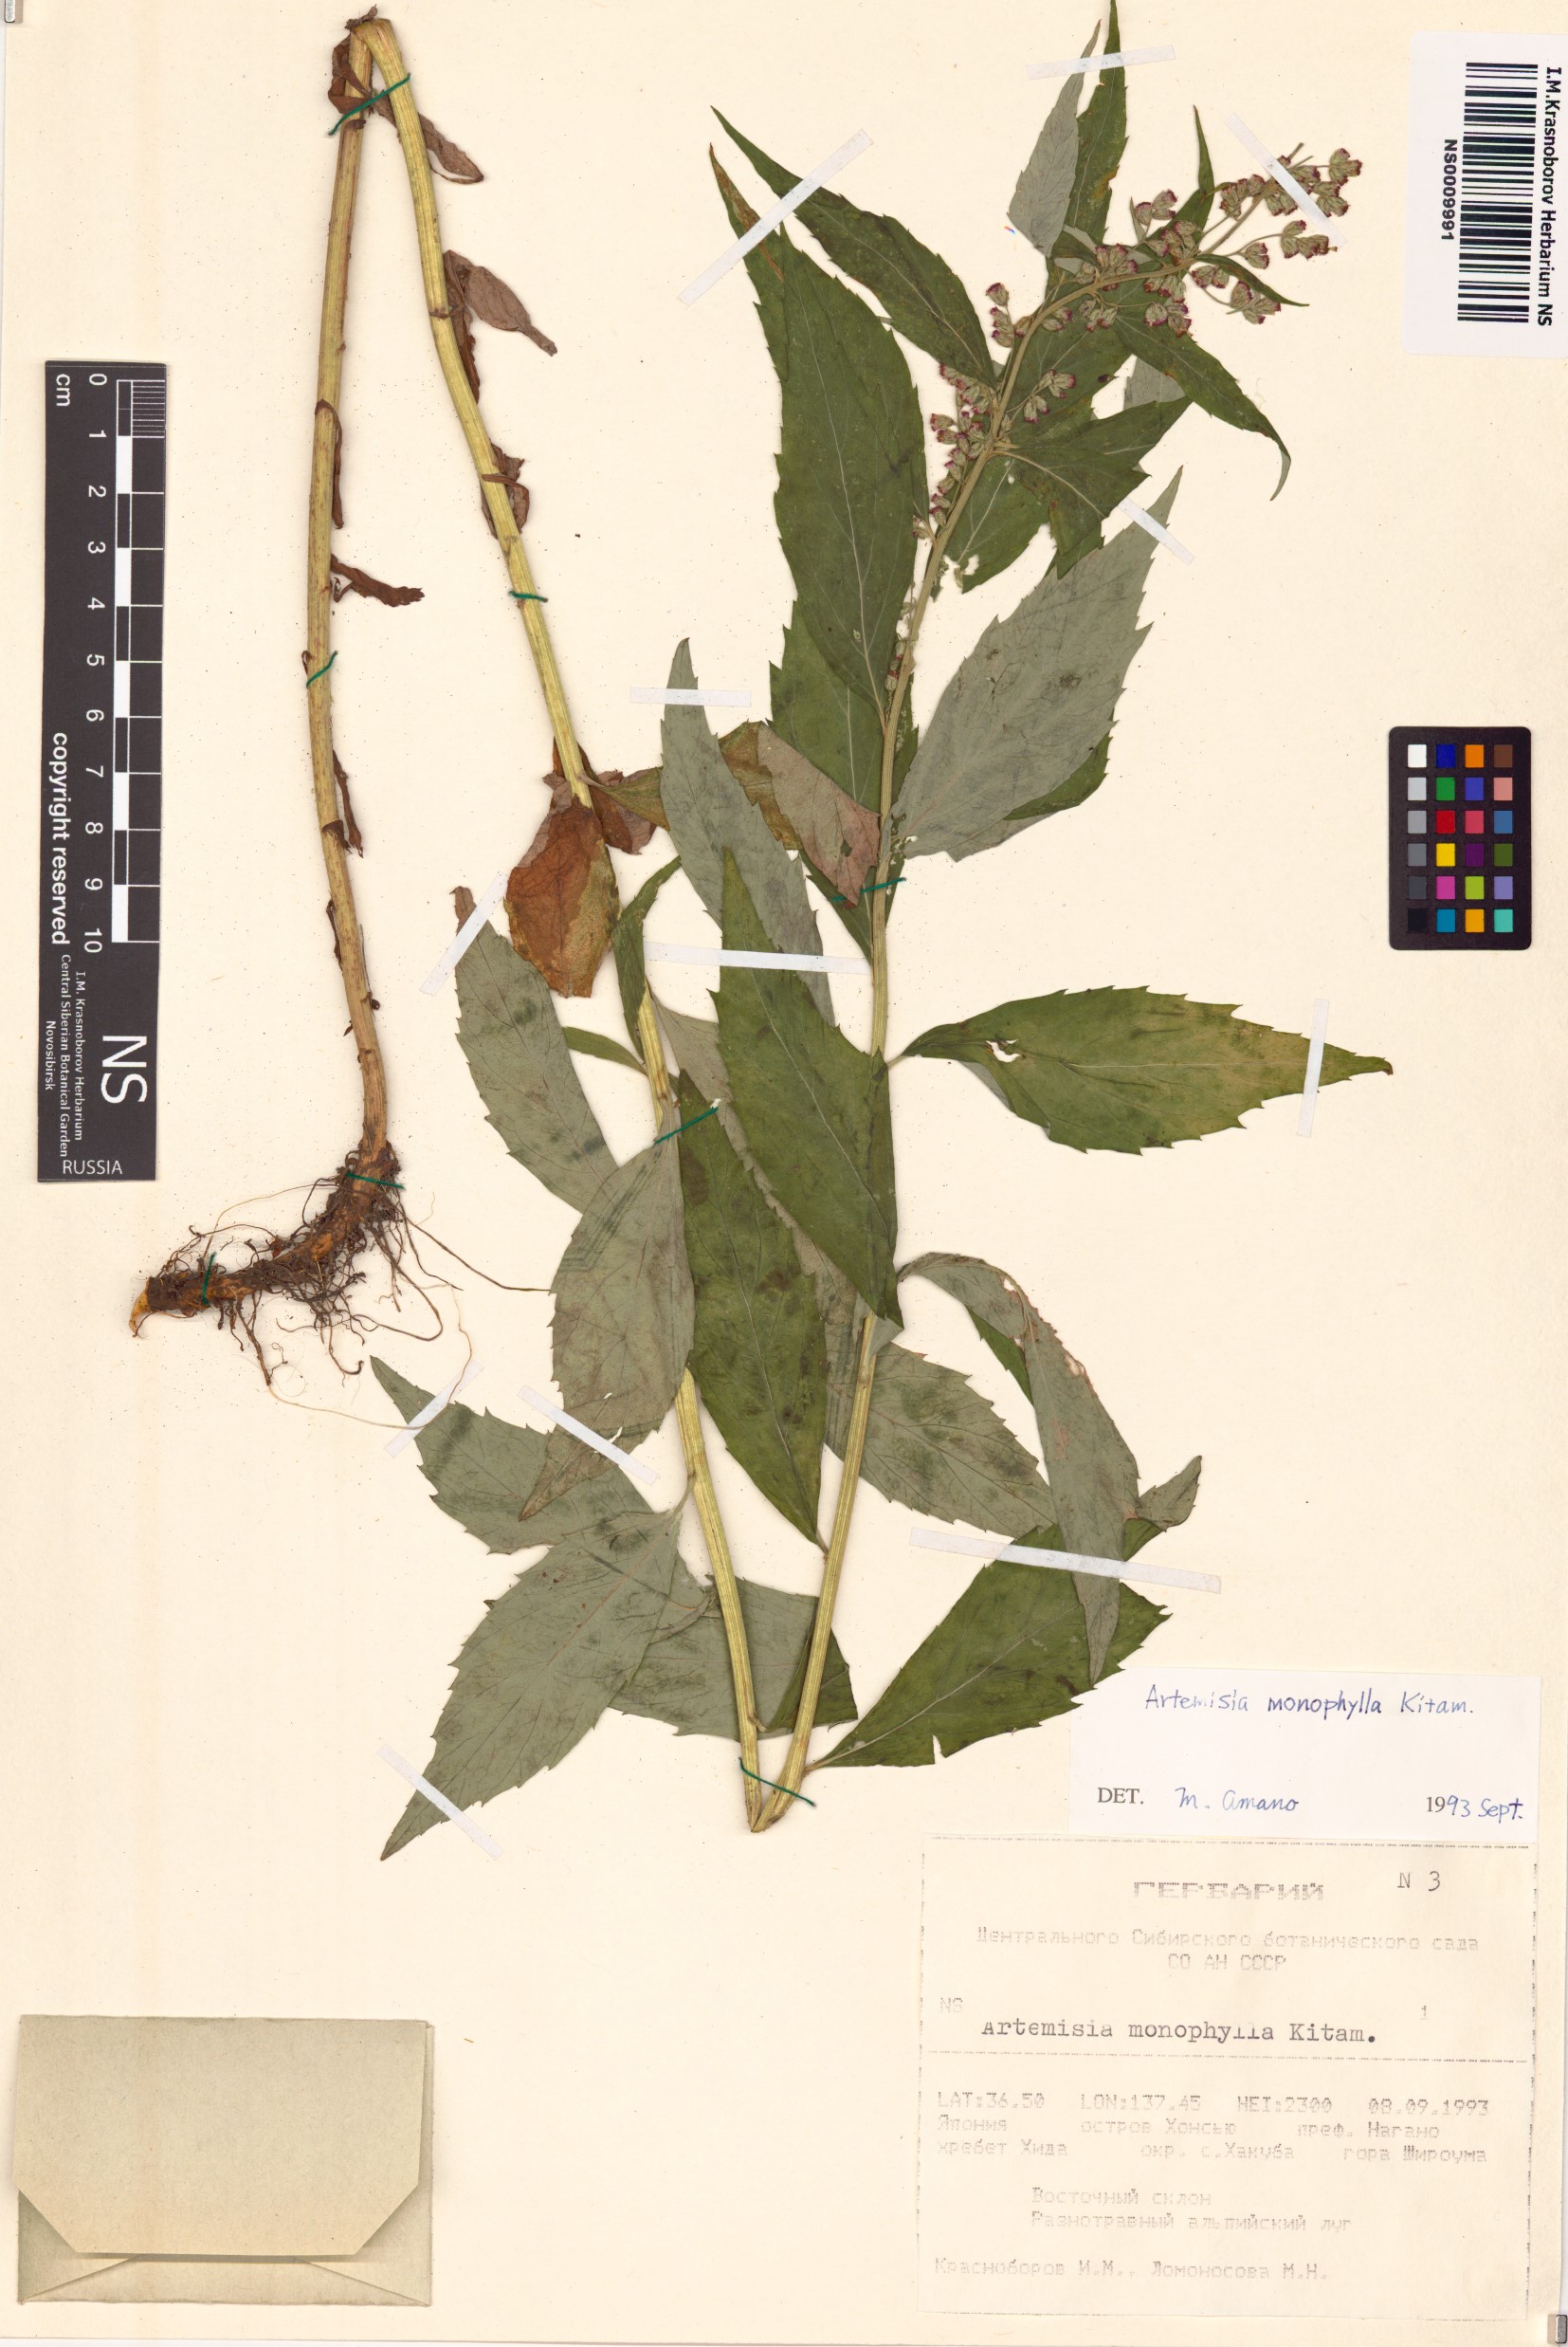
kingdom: Plantae
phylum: Tracheophyta
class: Magnoliopsida
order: Asterales
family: Asteraceae
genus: Artemisia
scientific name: Artemisia monophylla
